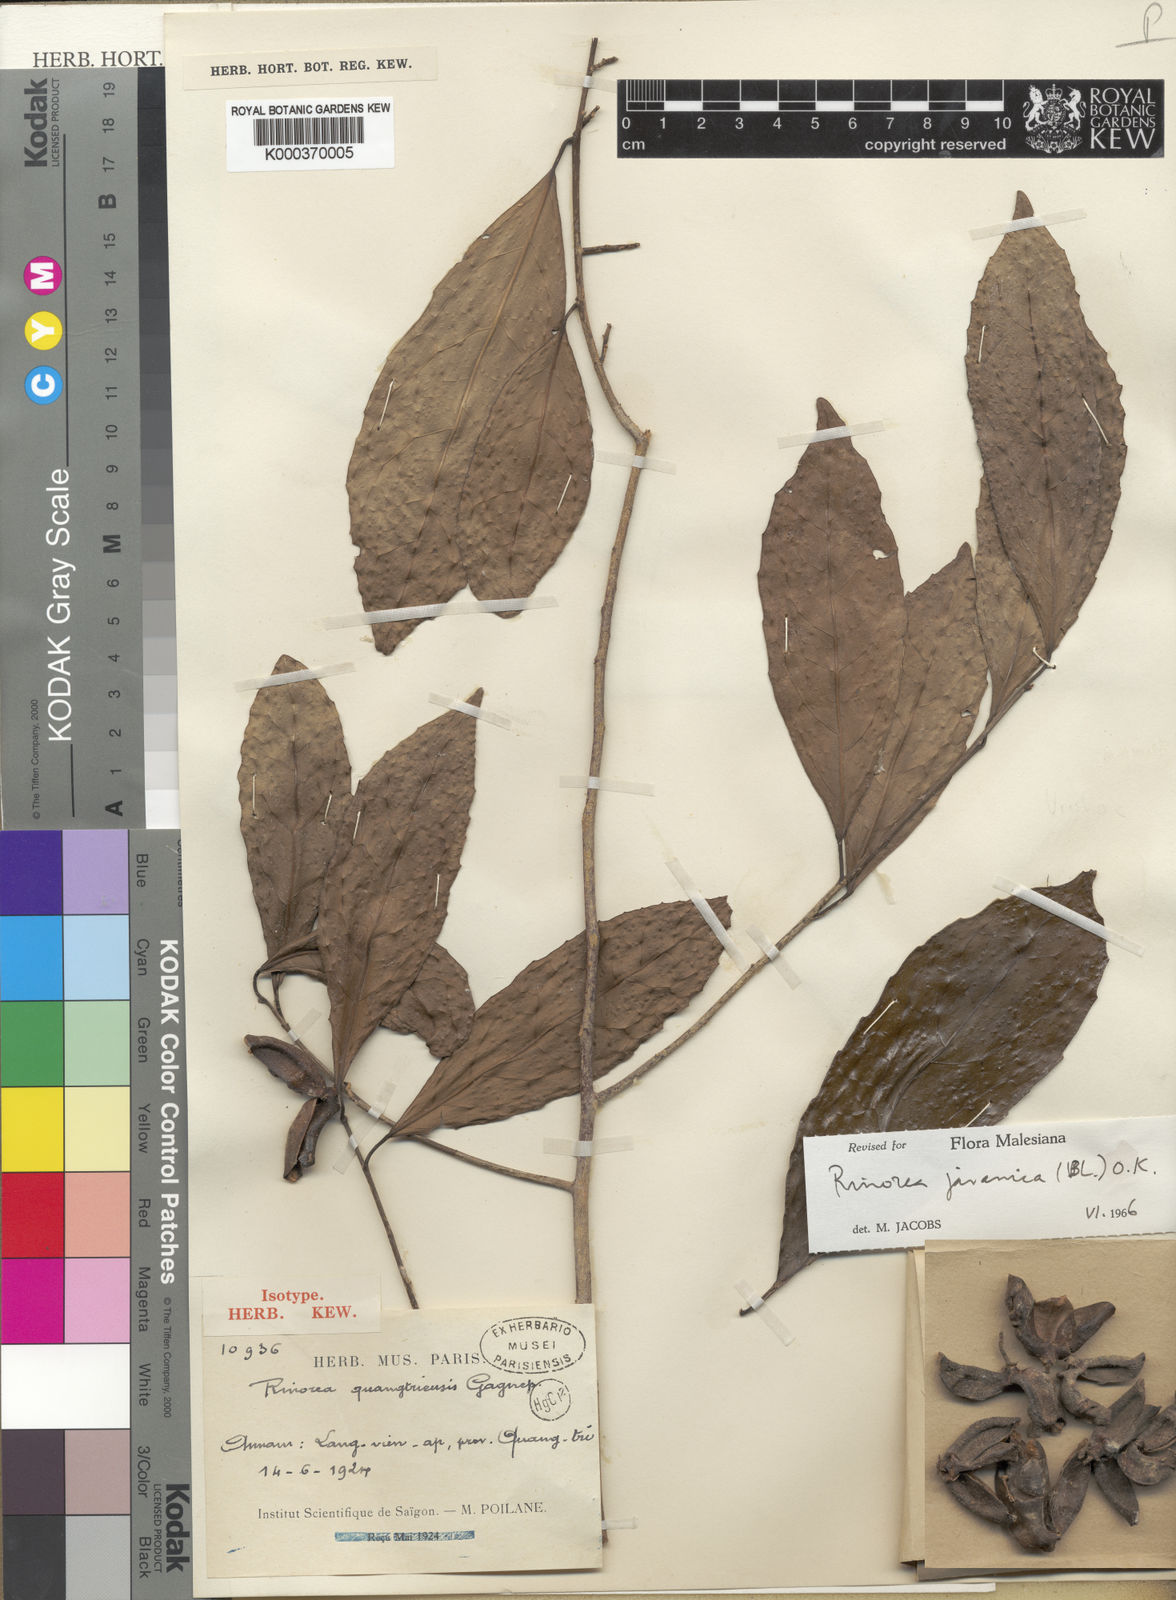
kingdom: Plantae
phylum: Tracheophyta
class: Magnoliopsida
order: Malpighiales
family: Violaceae
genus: Rinorea
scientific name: Rinorea javanica
